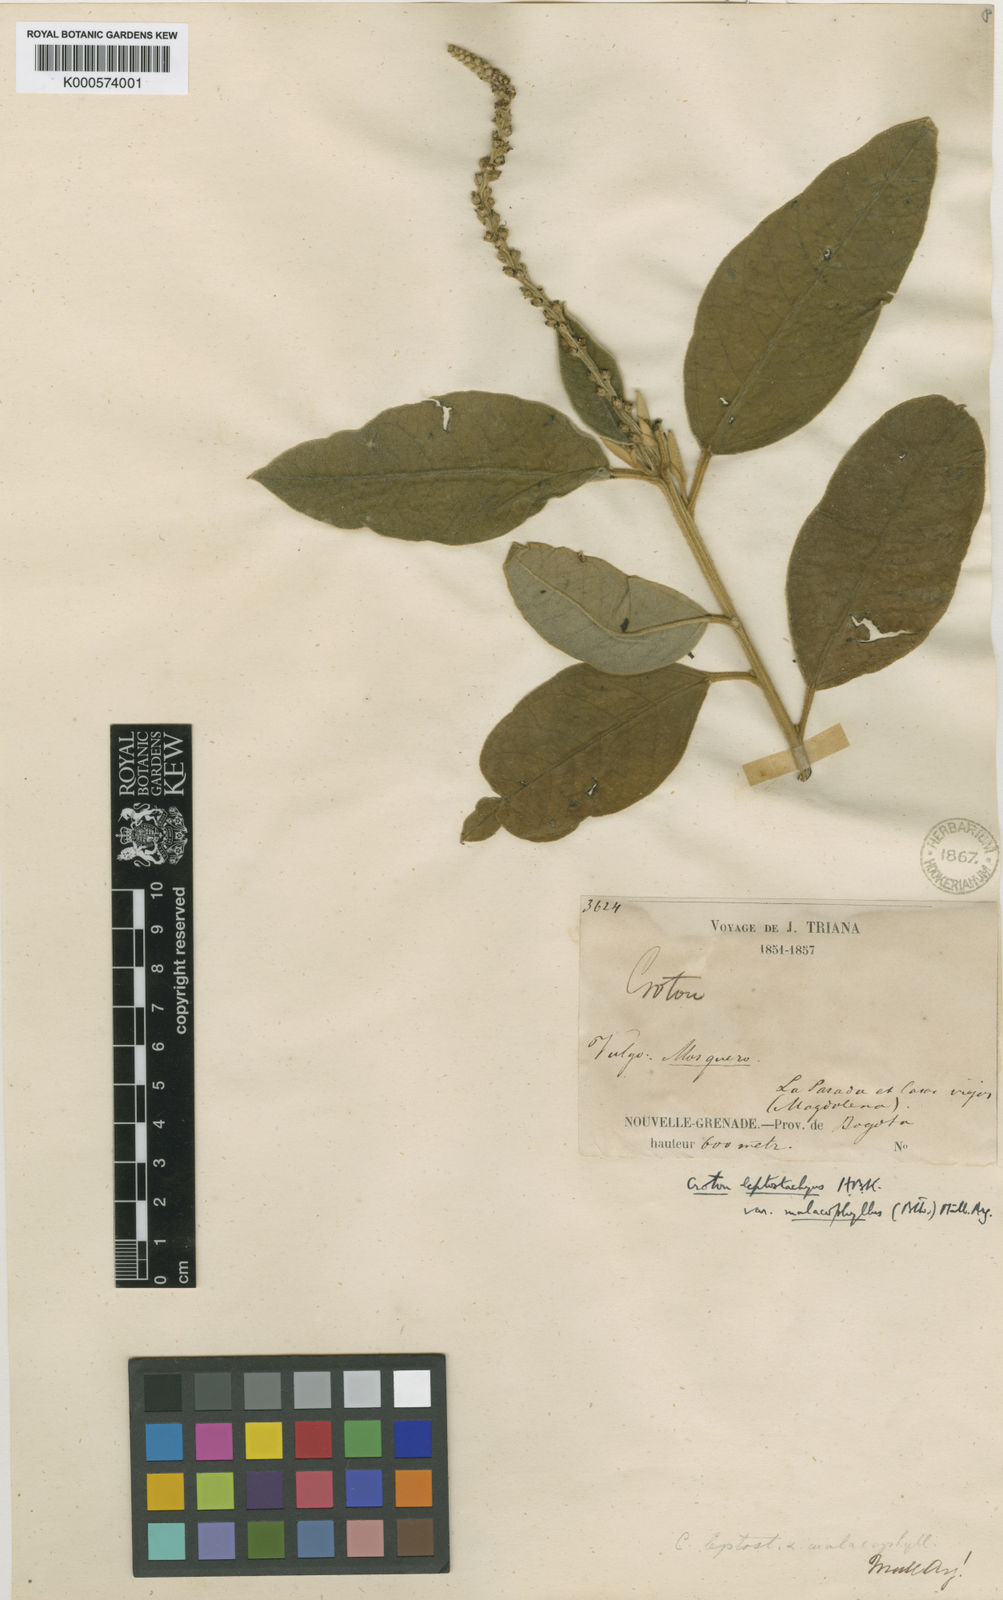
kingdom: Plantae
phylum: Tracheophyta
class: Magnoliopsida
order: Malpighiales
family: Euphorbiaceae
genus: Croton
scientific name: Croton leptostachyus
